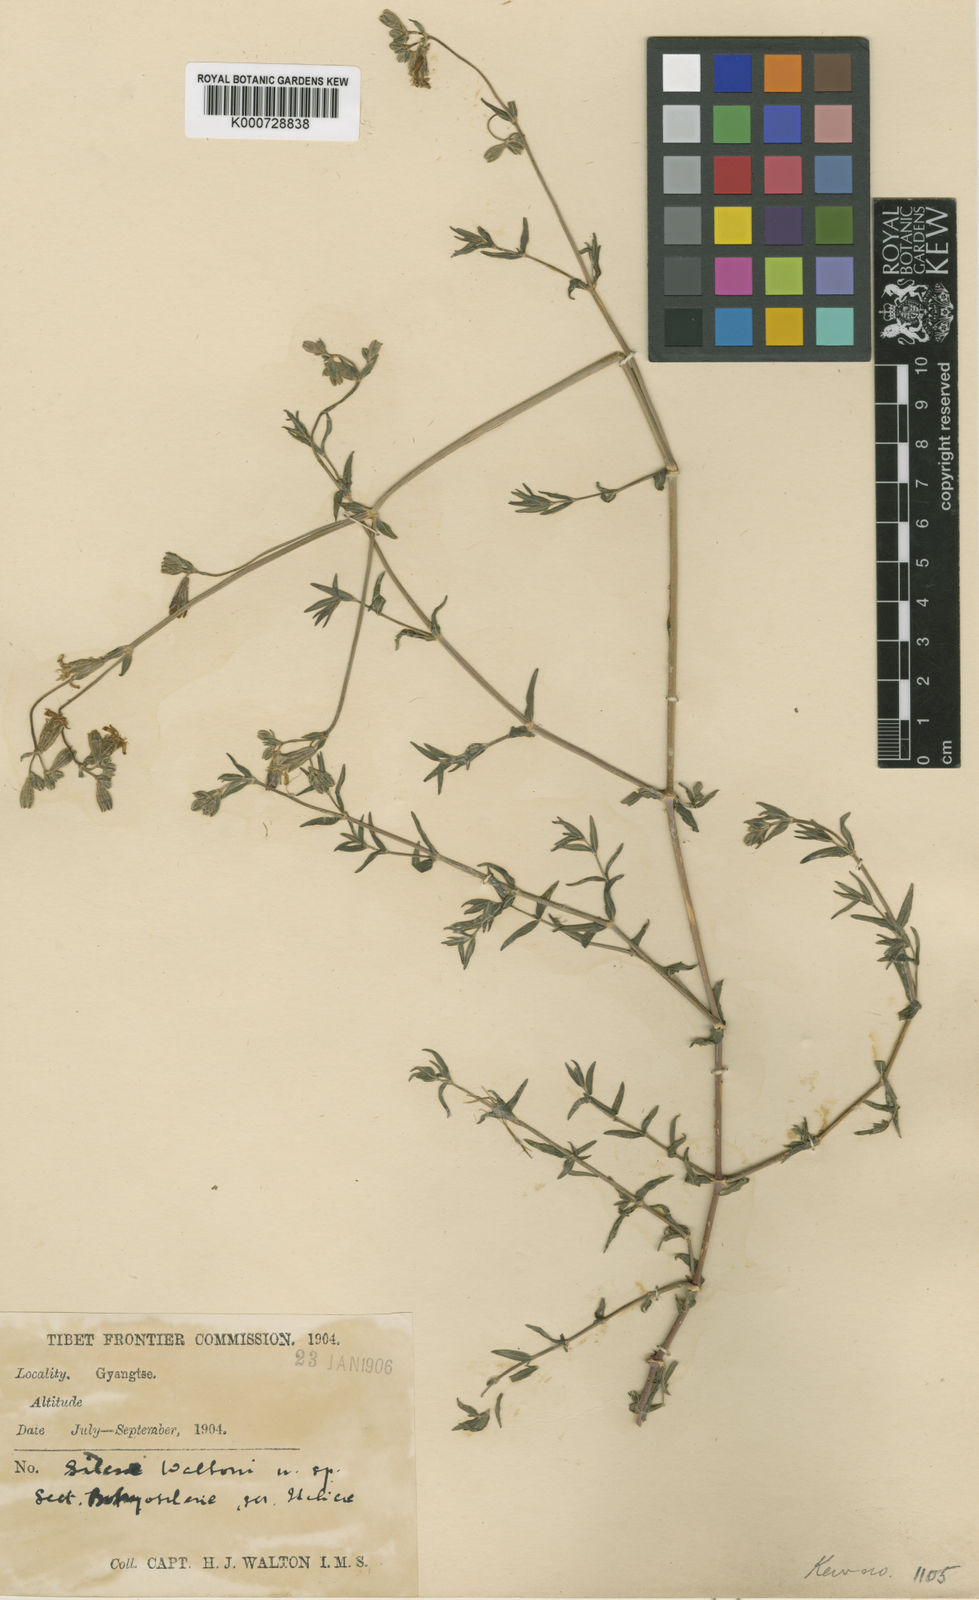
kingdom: Plantae
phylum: Tracheophyta
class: Magnoliopsida
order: Caryophyllales
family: Caryophyllaceae
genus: Silene
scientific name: Silene subcretacea
